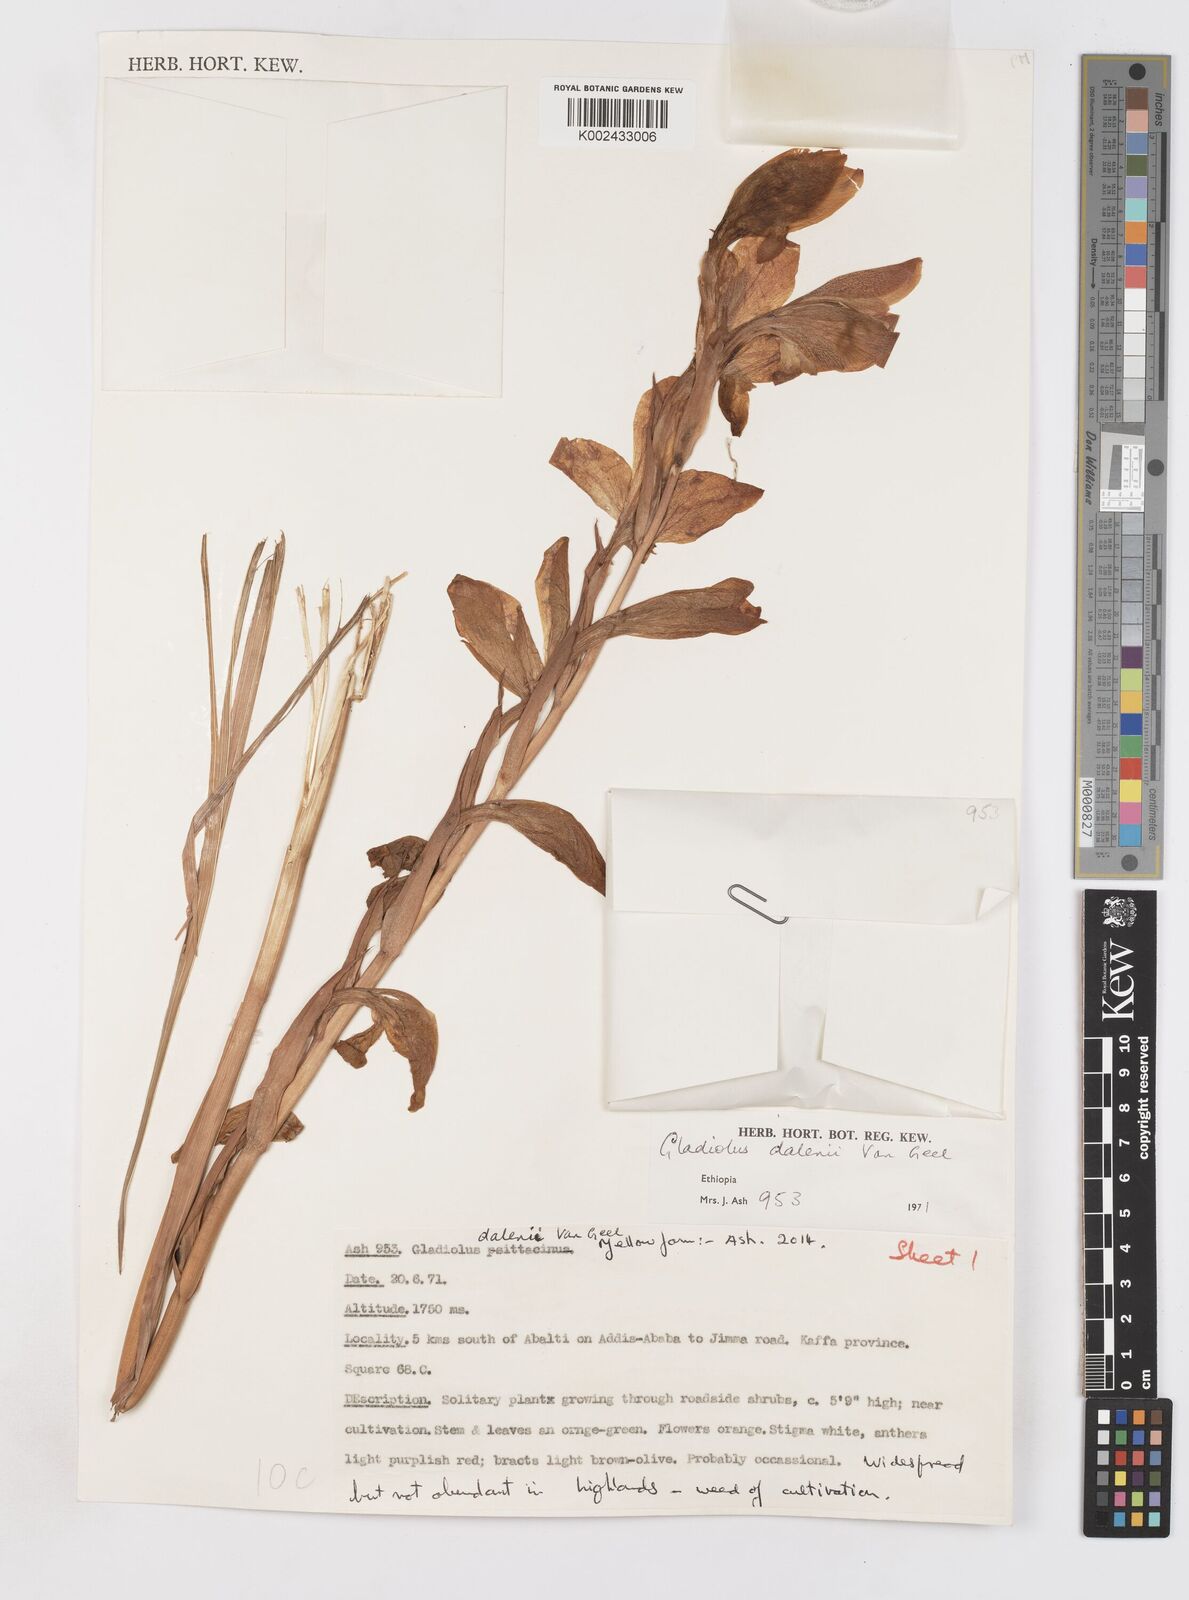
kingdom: Plantae
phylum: Tracheophyta
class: Liliopsida
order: Asparagales
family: Iridaceae
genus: Gladiolus
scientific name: Gladiolus dalenii
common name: Cornflag
